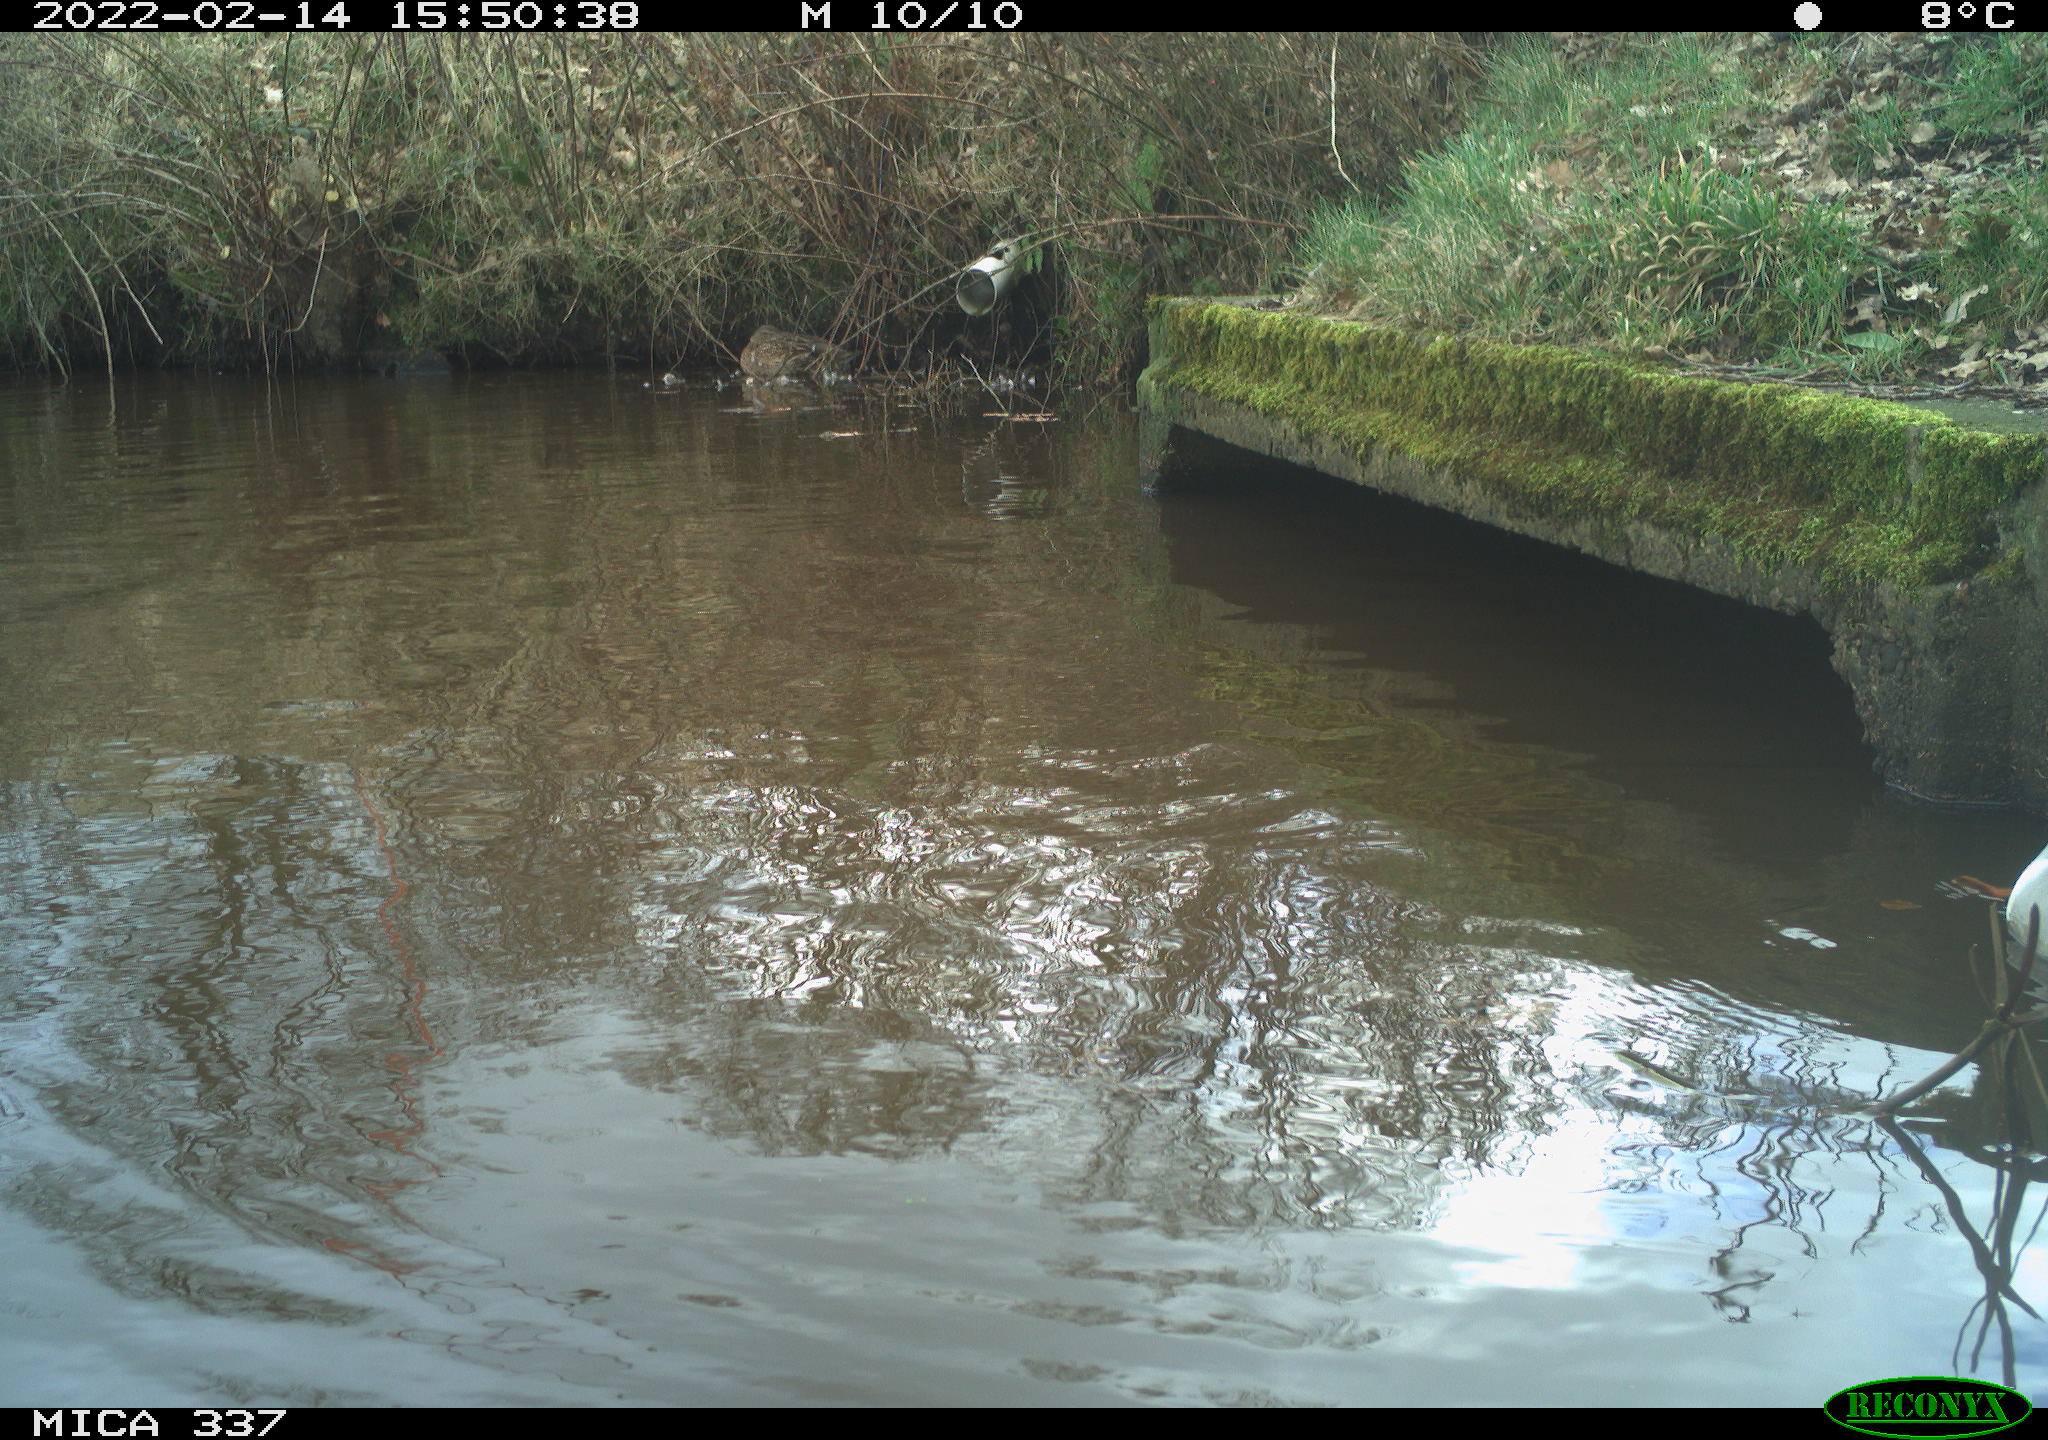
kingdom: Animalia
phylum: Chordata
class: Aves
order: Anseriformes
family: Anatidae
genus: Anas
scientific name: Anas platyrhynchos
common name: Mallard
